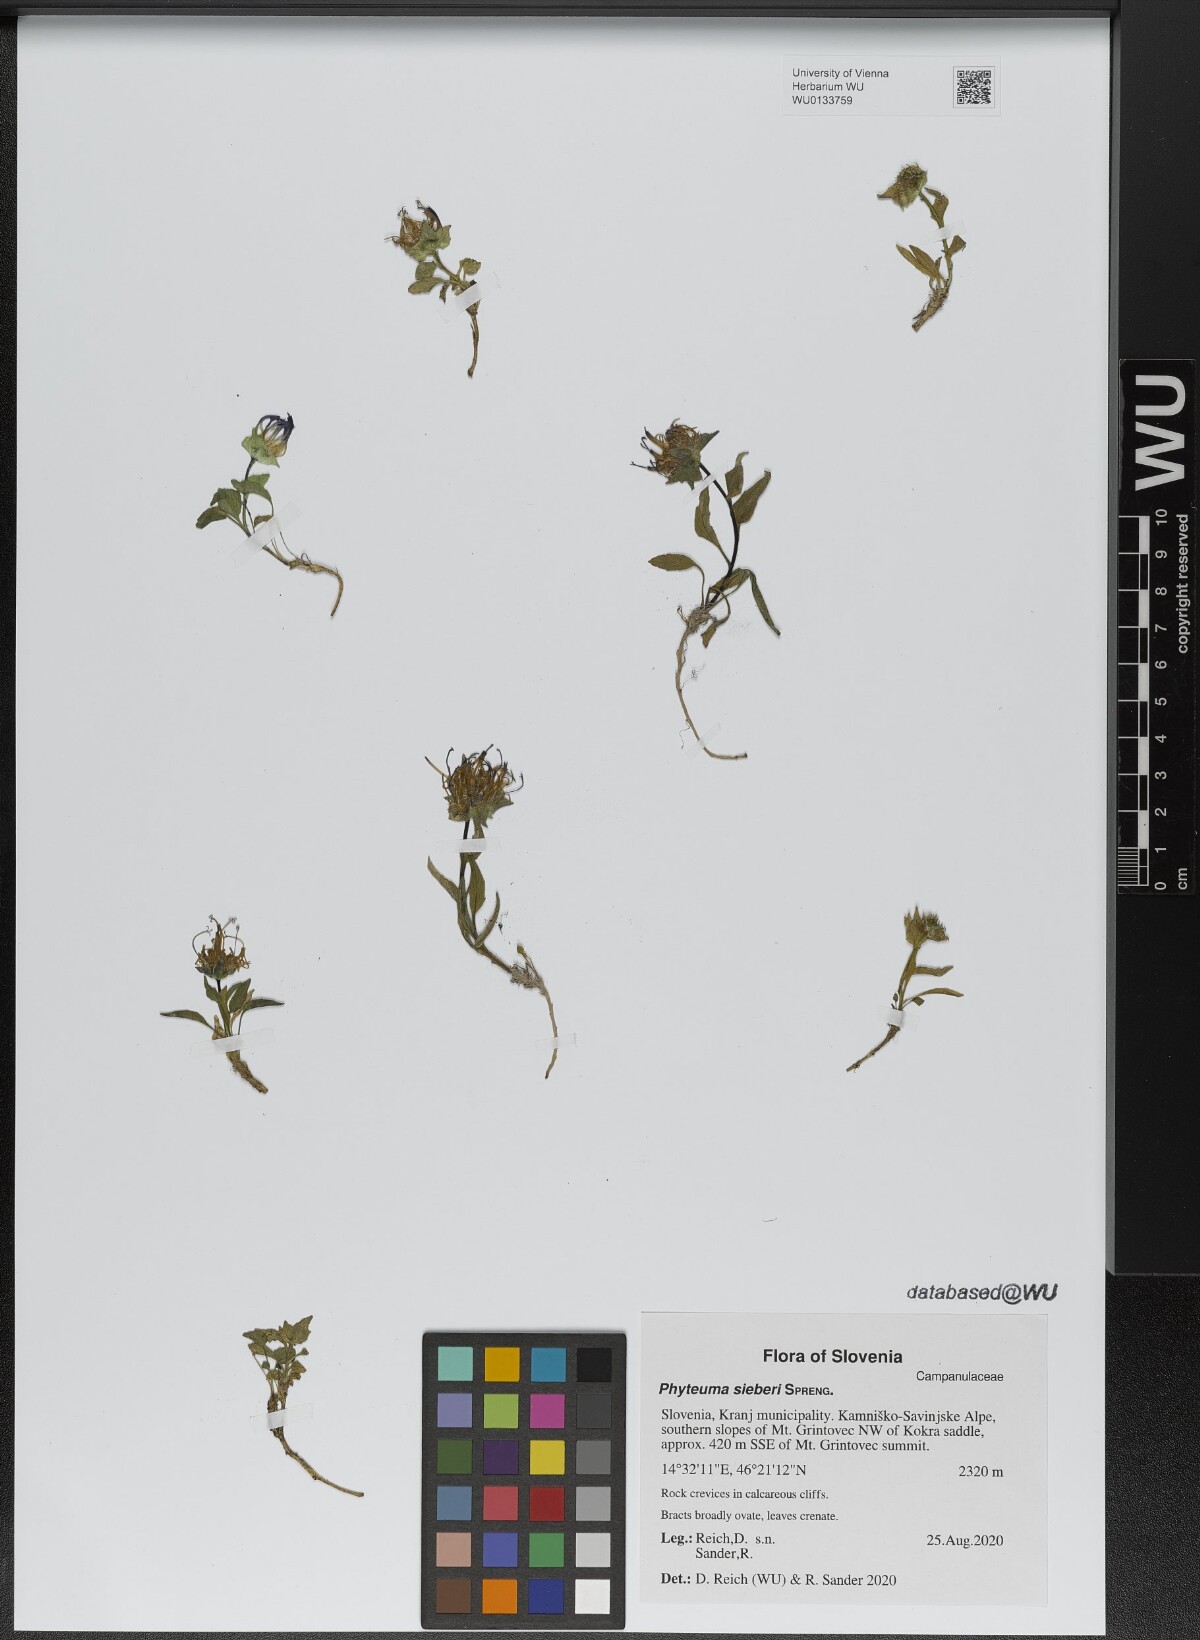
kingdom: Plantae
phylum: Tracheophyta
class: Magnoliopsida
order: Asterales
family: Campanulaceae
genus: Phyteuma
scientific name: Phyteuma sieberi
